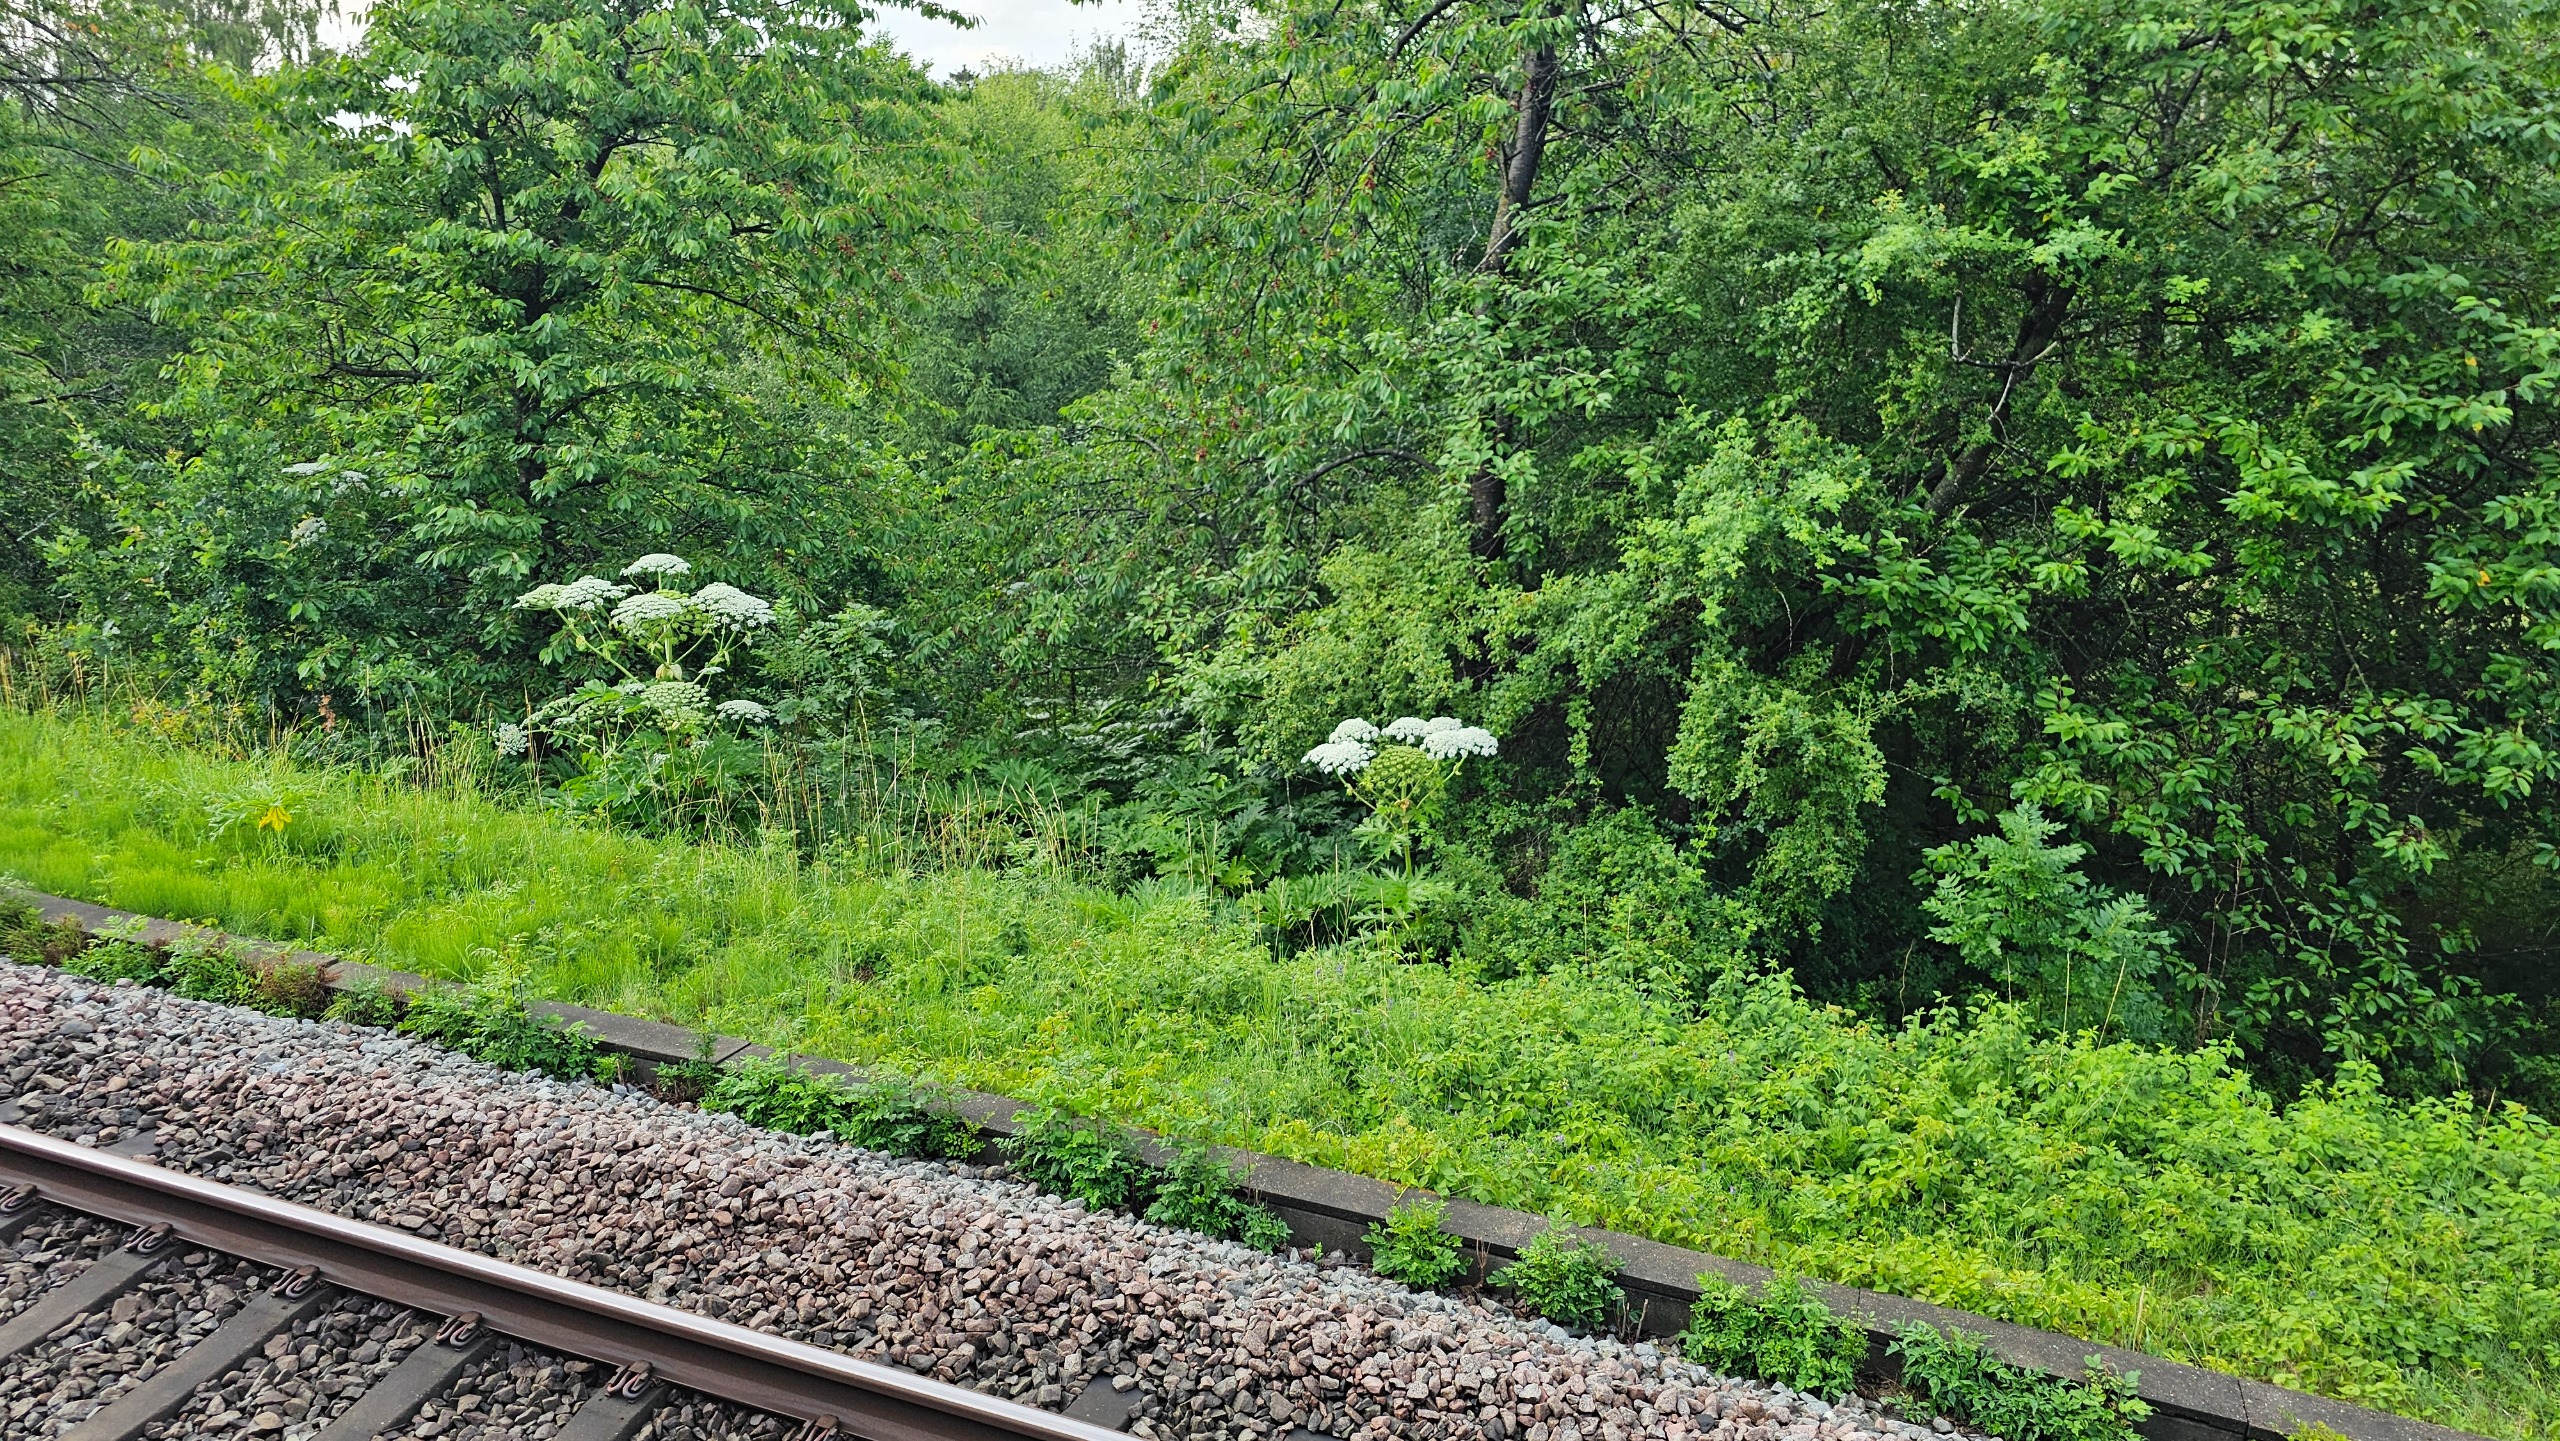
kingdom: Plantae
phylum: Tracheophyta
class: Magnoliopsida
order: Apiales
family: Apiaceae
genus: Heracleum
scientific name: Heracleum mantegazzianum
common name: Kæmpe-bjørneklo
